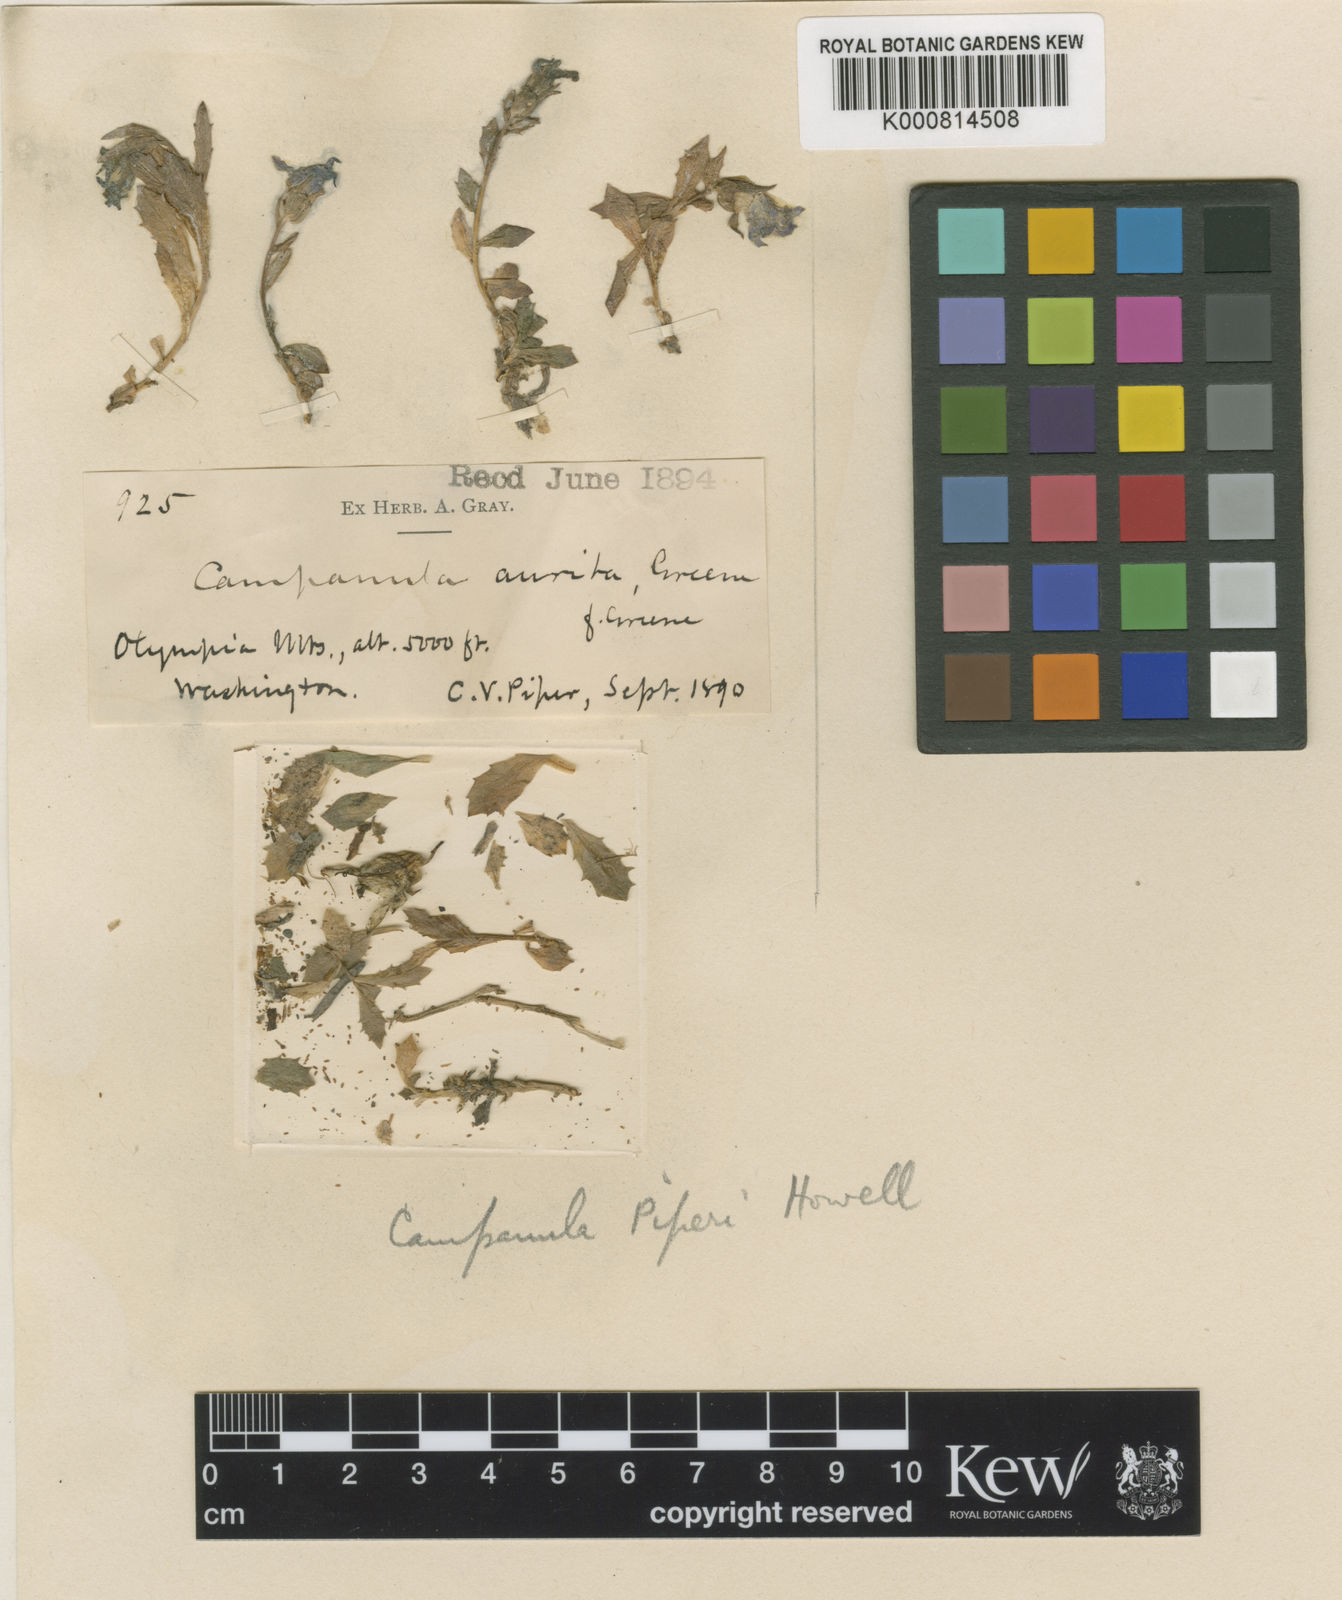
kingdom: Plantae
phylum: Tracheophyta
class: Magnoliopsida
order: Asterales
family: Campanulaceae
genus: Campanula
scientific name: Campanula piperi
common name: Olympic bellflower
